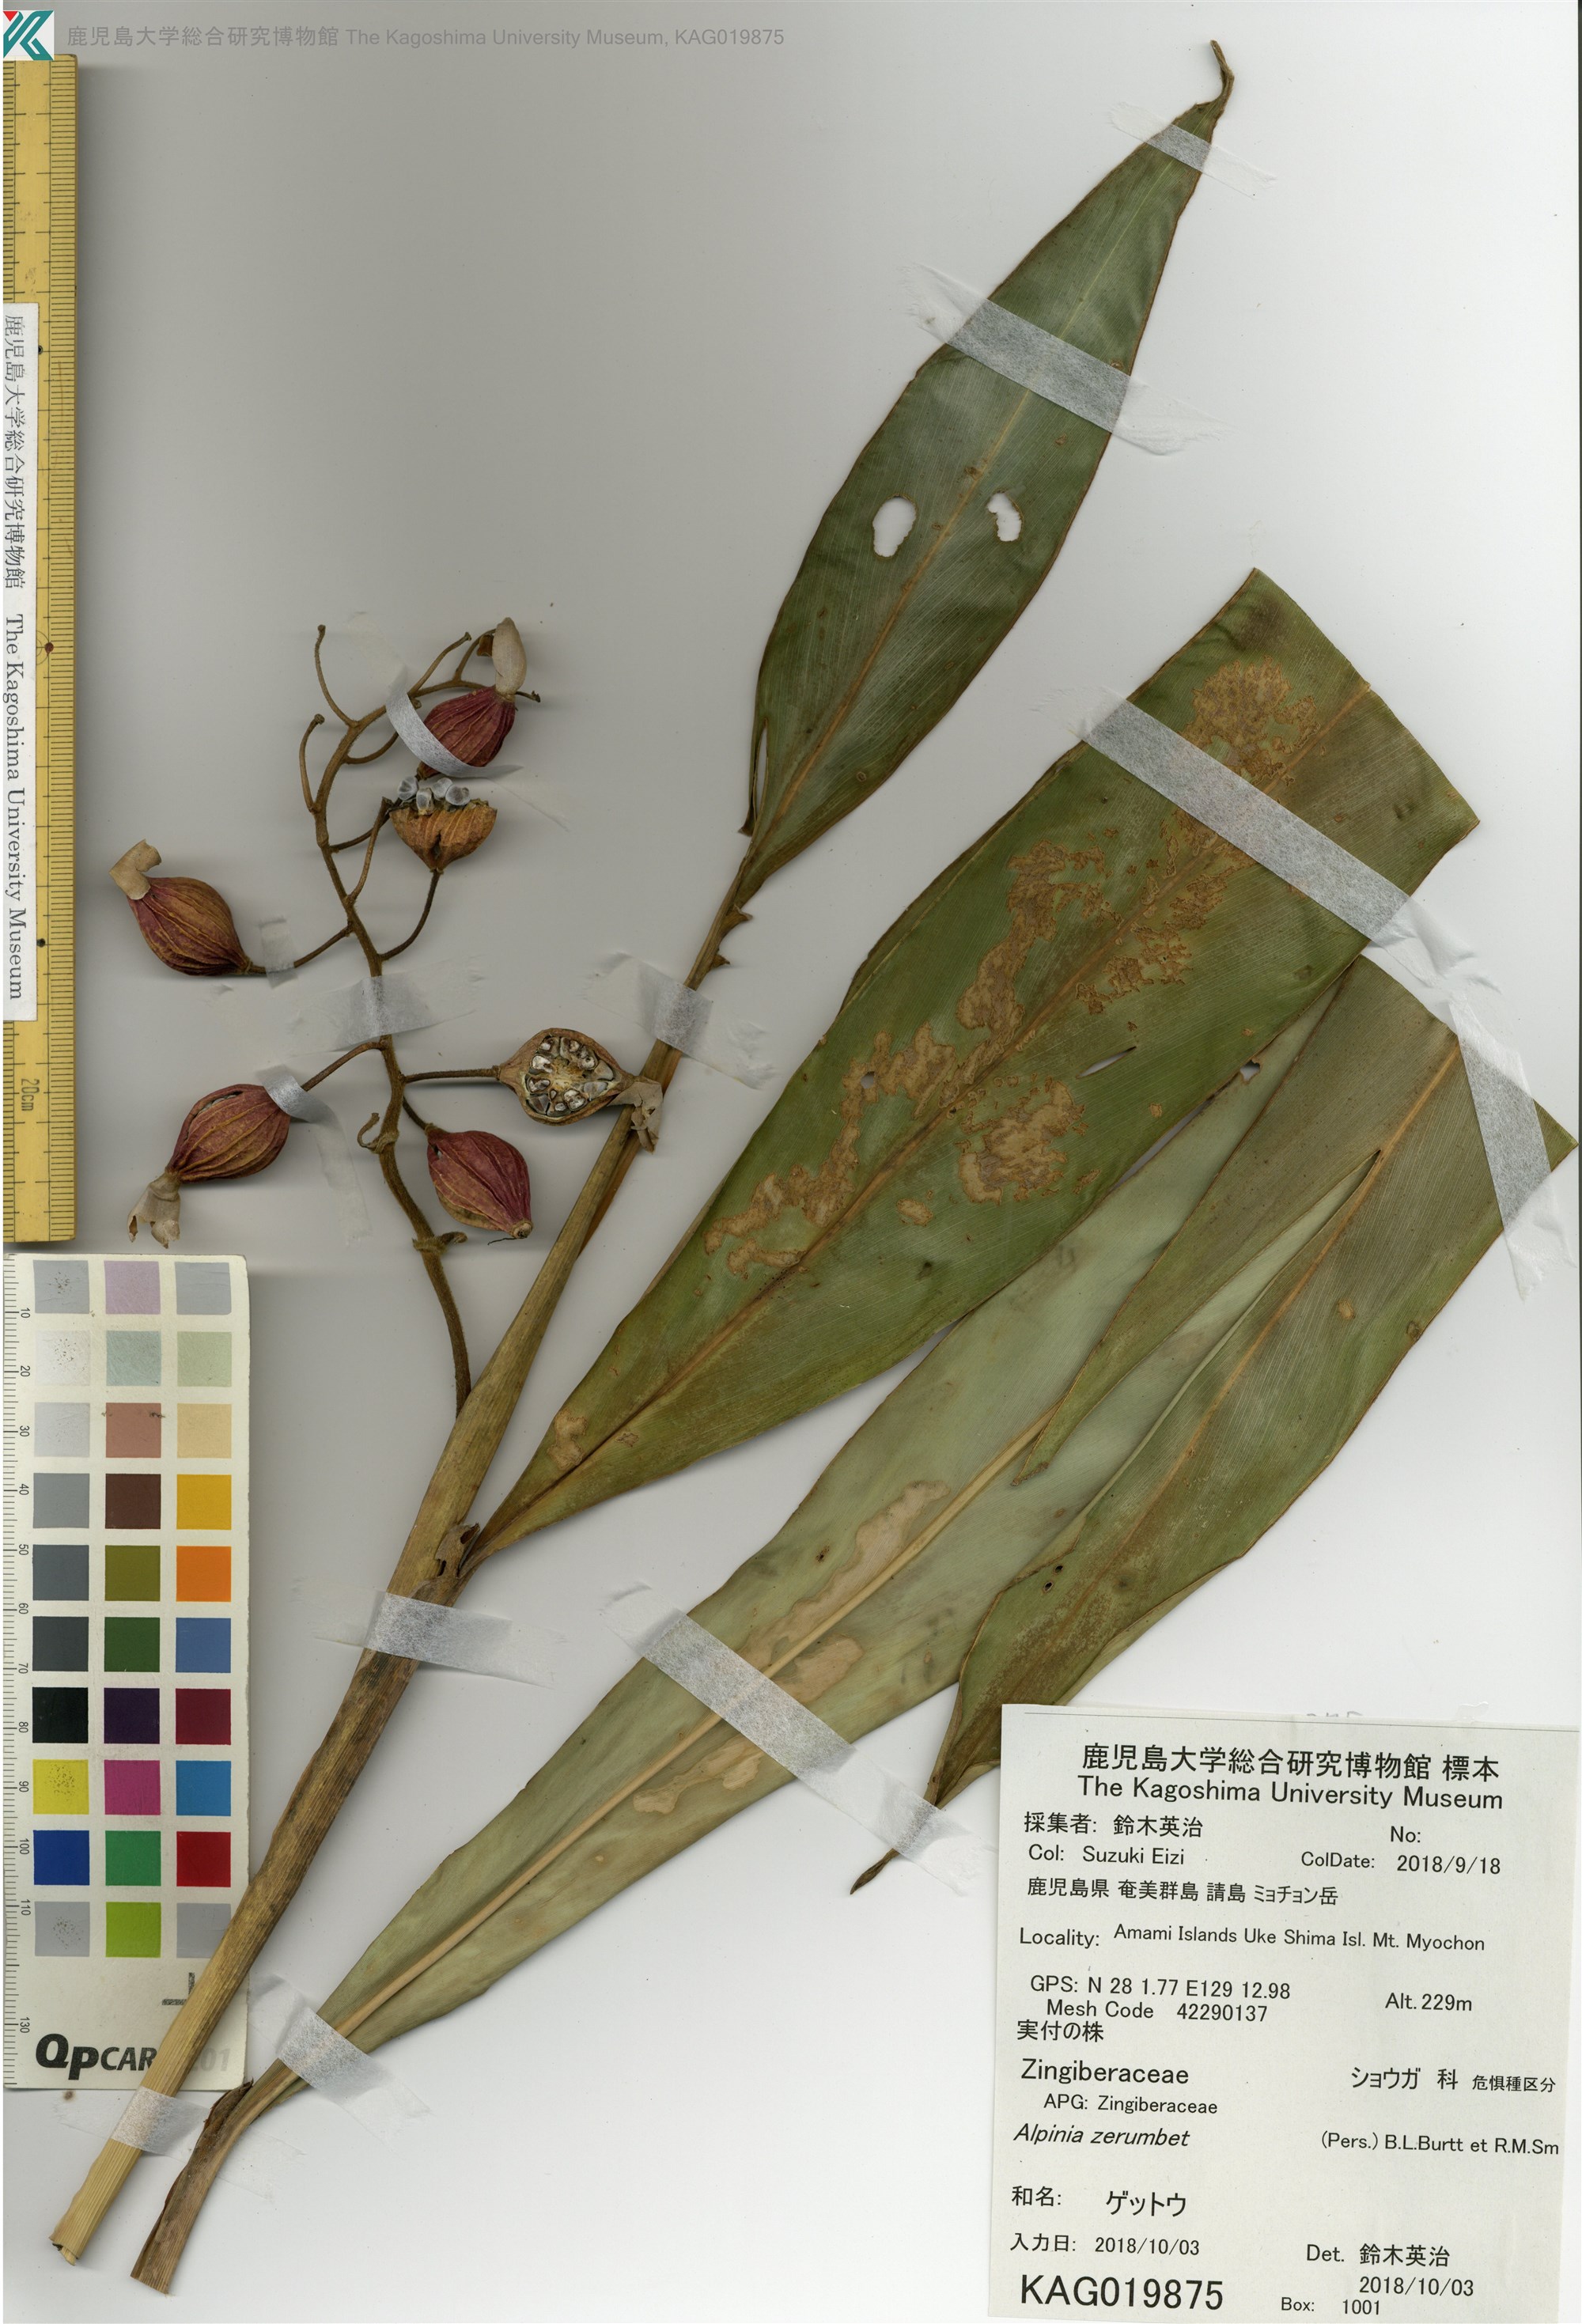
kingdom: Plantae
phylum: Tracheophyta
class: Liliopsida
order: Zingiberales
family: Zingiberaceae
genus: Alpinia
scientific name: Alpinia zerumbet
